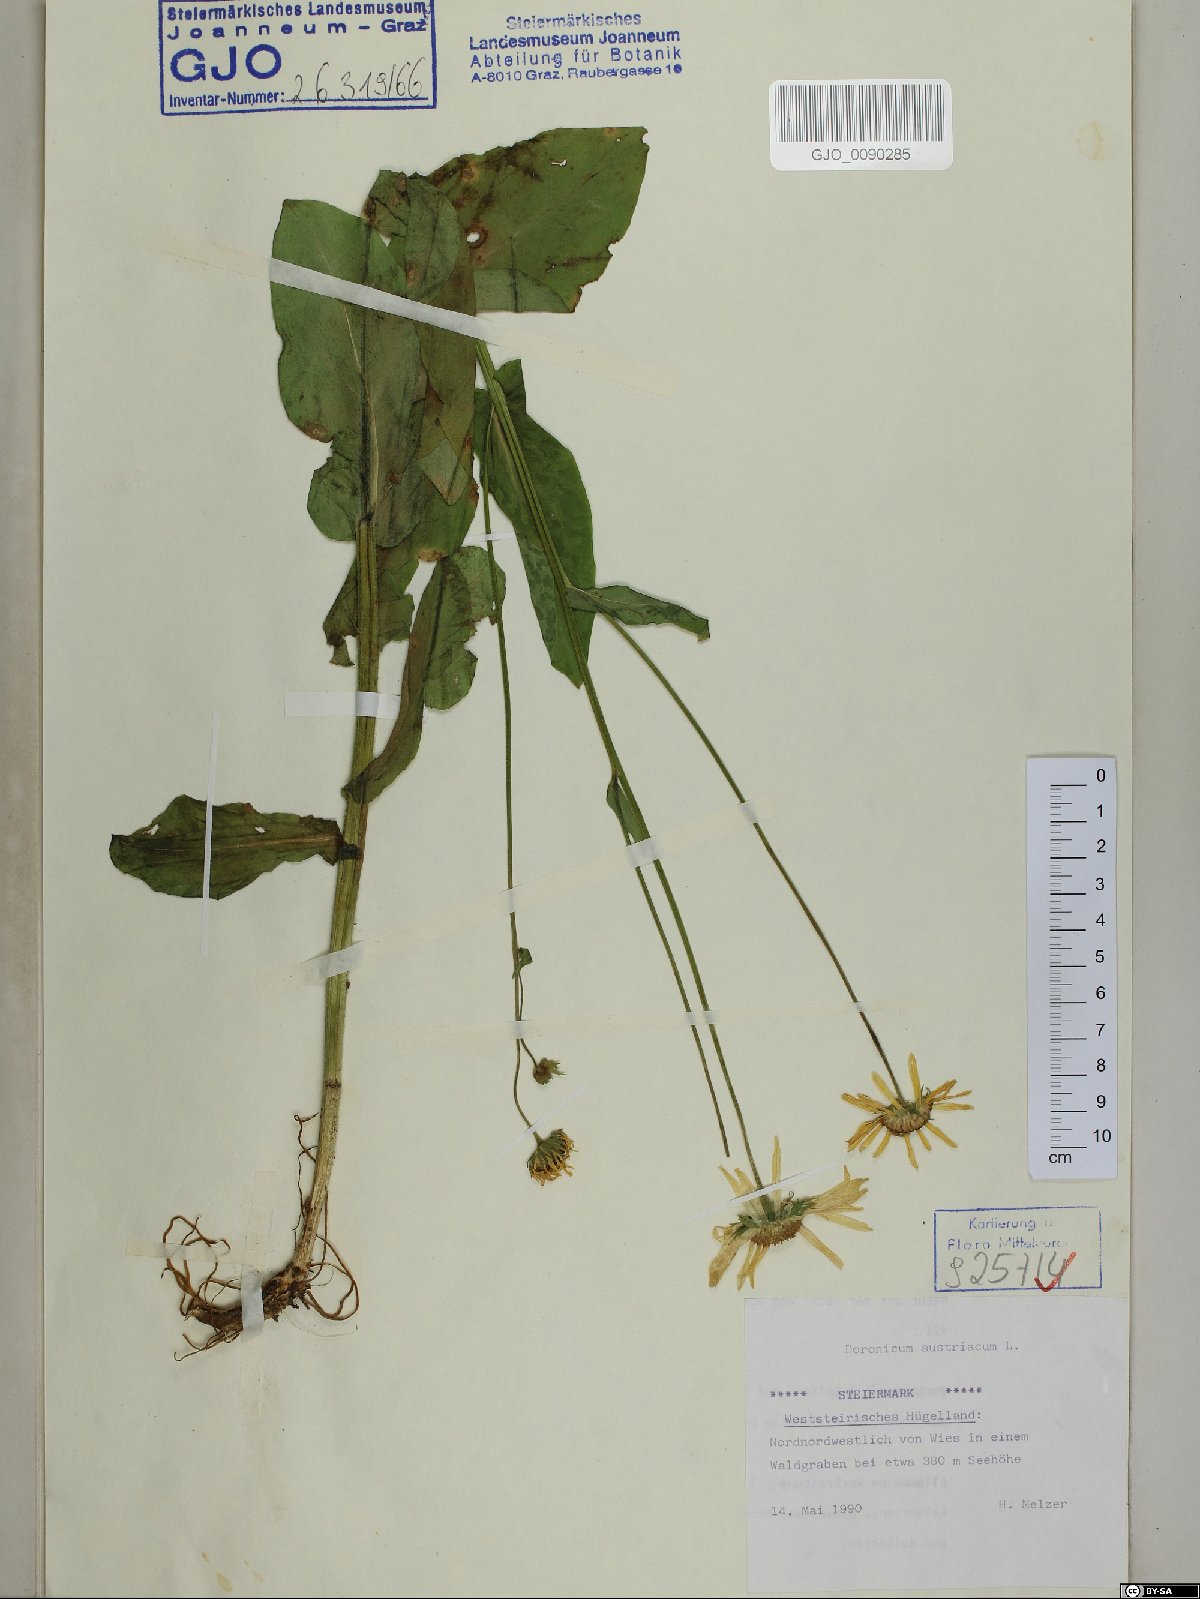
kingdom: Plantae
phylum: Tracheophyta
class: Magnoliopsida
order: Asterales
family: Asteraceae
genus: Doronicum
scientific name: Doronicum austriacum
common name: Austrian leopard's-bane
